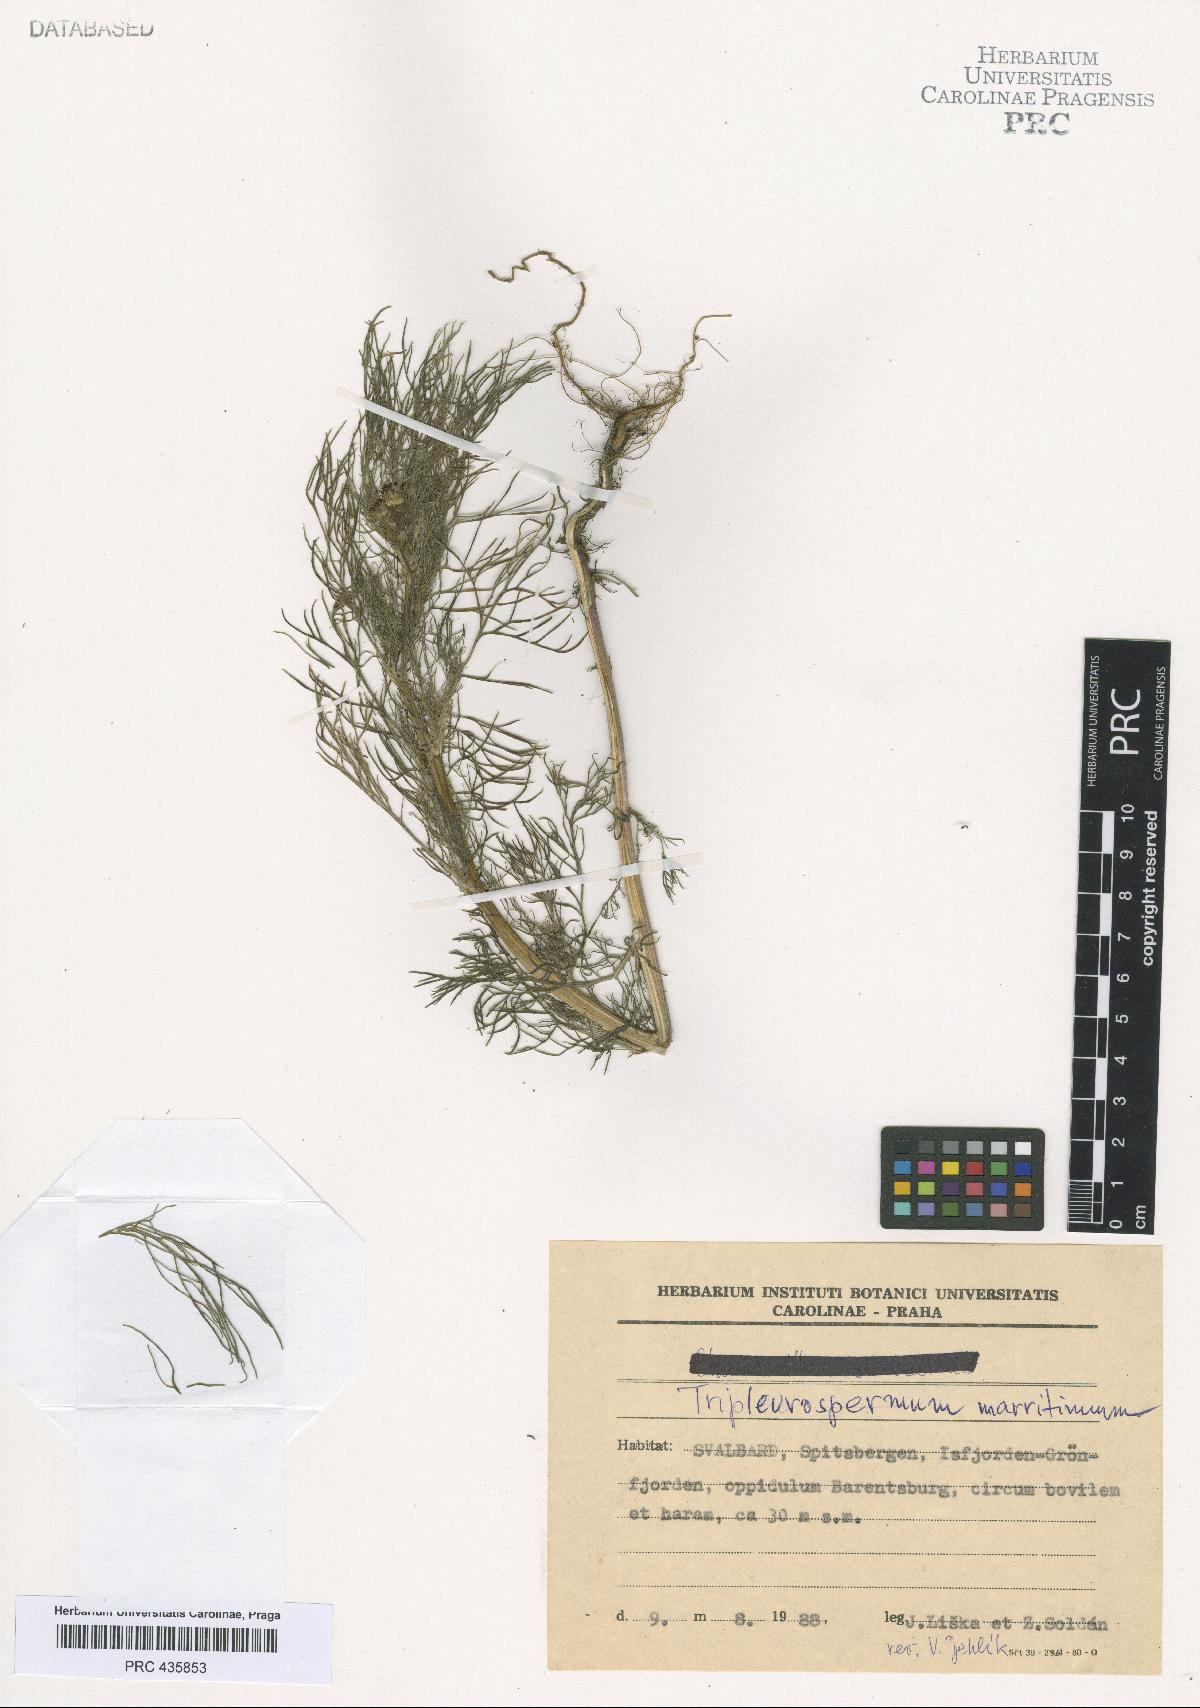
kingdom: Plantae
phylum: Tracheophyta
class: Magnoliopsida
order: Asterales
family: Asteraceae
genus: Tripleurospermum
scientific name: Tripleurospermum maritimum
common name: Sea mayweed
